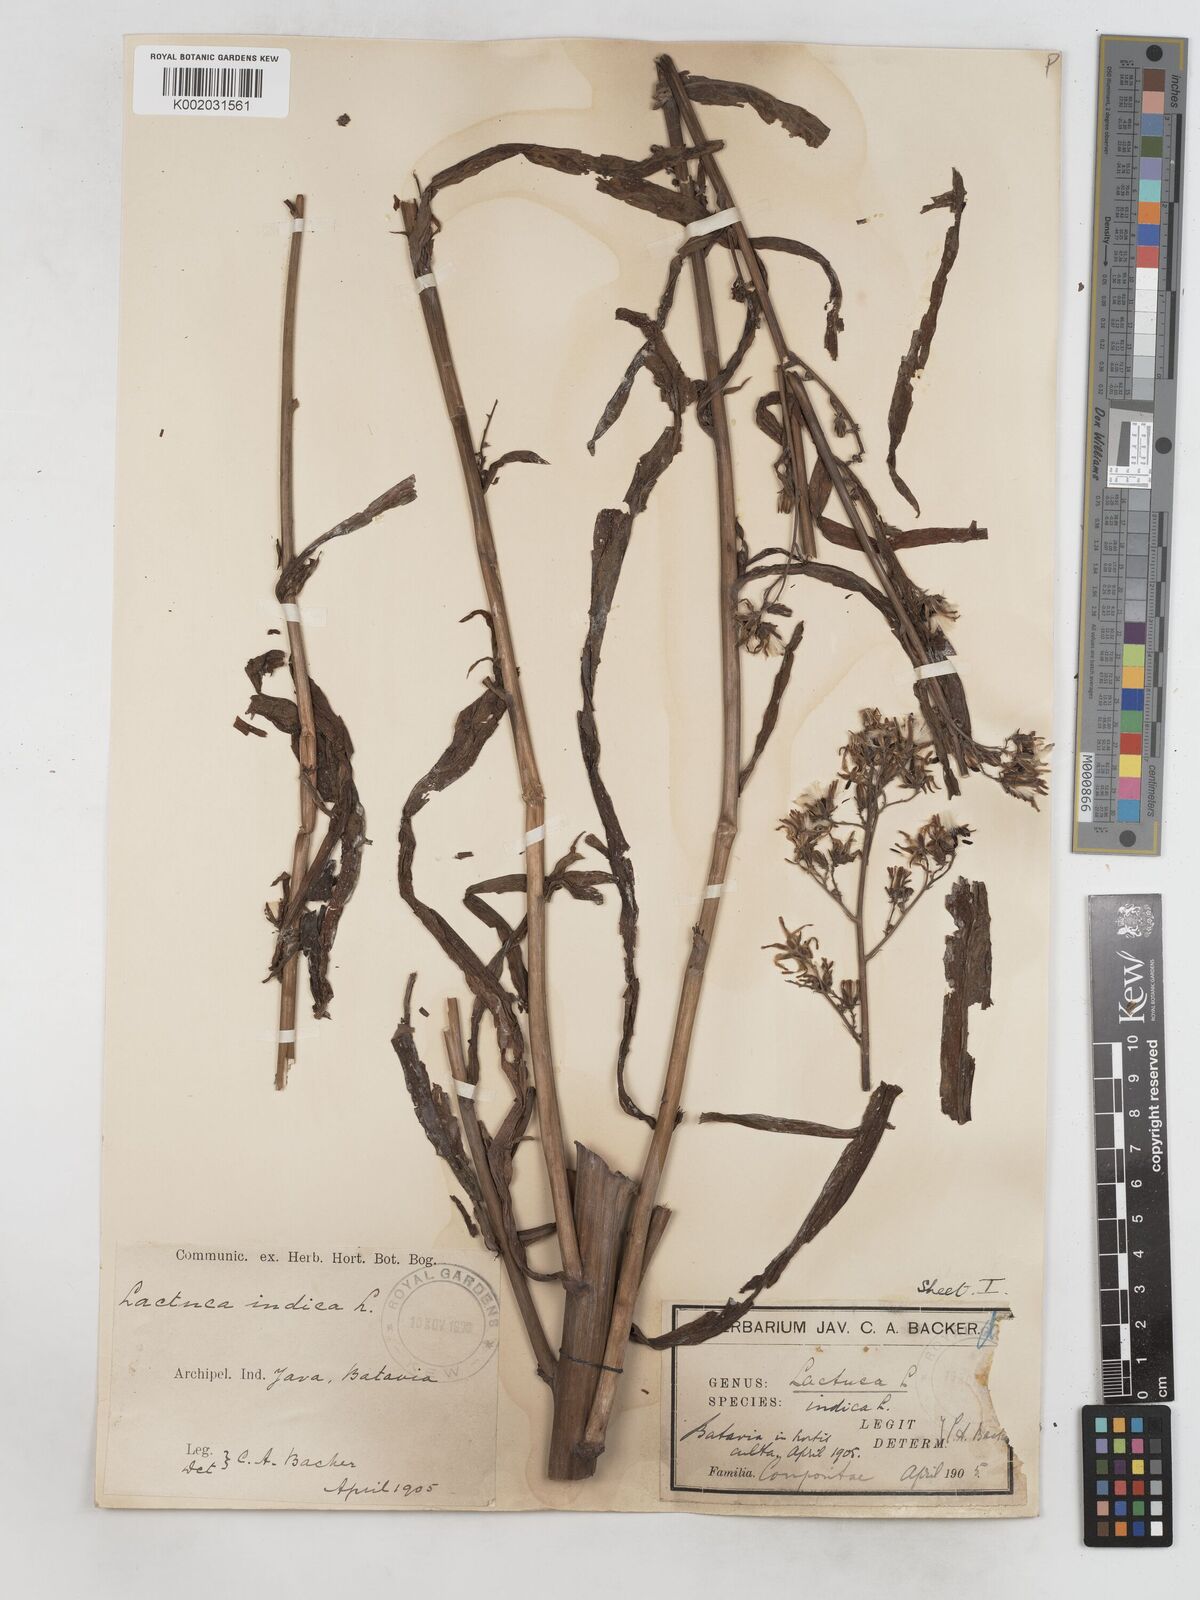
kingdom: Plantae
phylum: Tracheophyta
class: Magnoliopsida
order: Asterales
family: Asteraceae
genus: Lactuca
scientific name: Lactuca indica
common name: Wild lettuce
